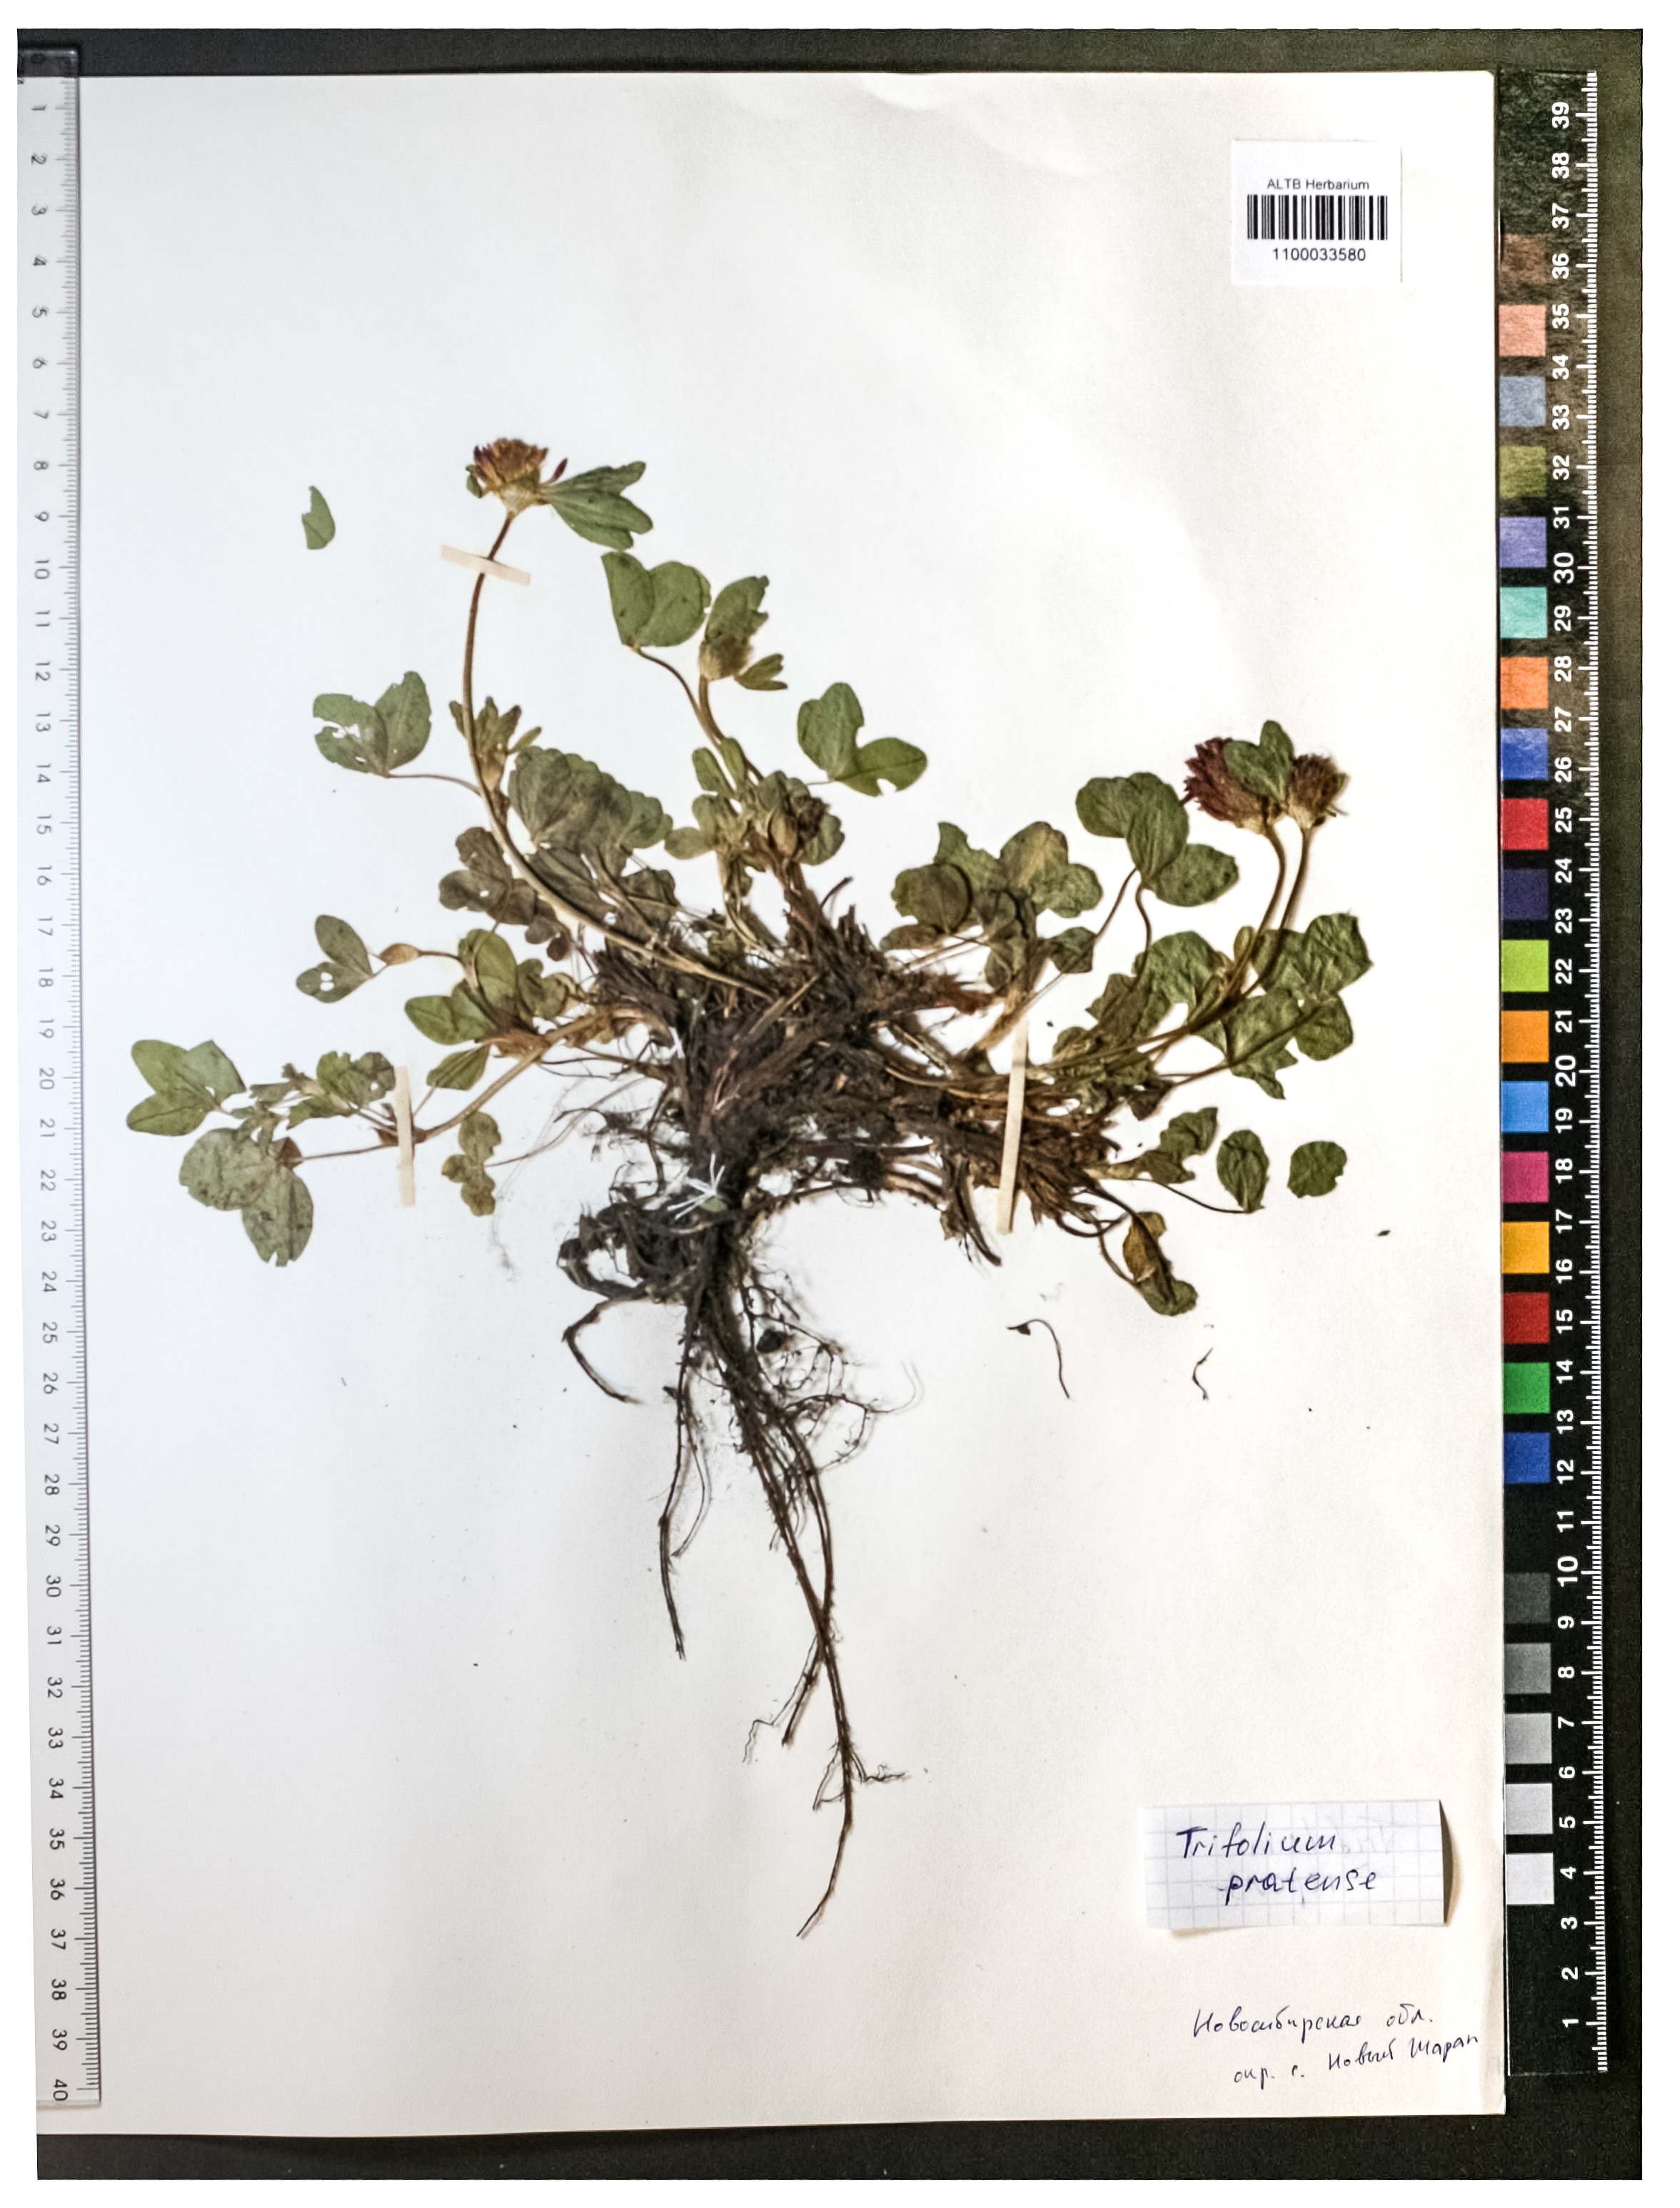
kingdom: Plantae
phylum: Tracheophyta
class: Magnoliopsida
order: Fabales
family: Fabaceae
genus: Trifolium
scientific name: Trifolium pratense
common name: Red clover
